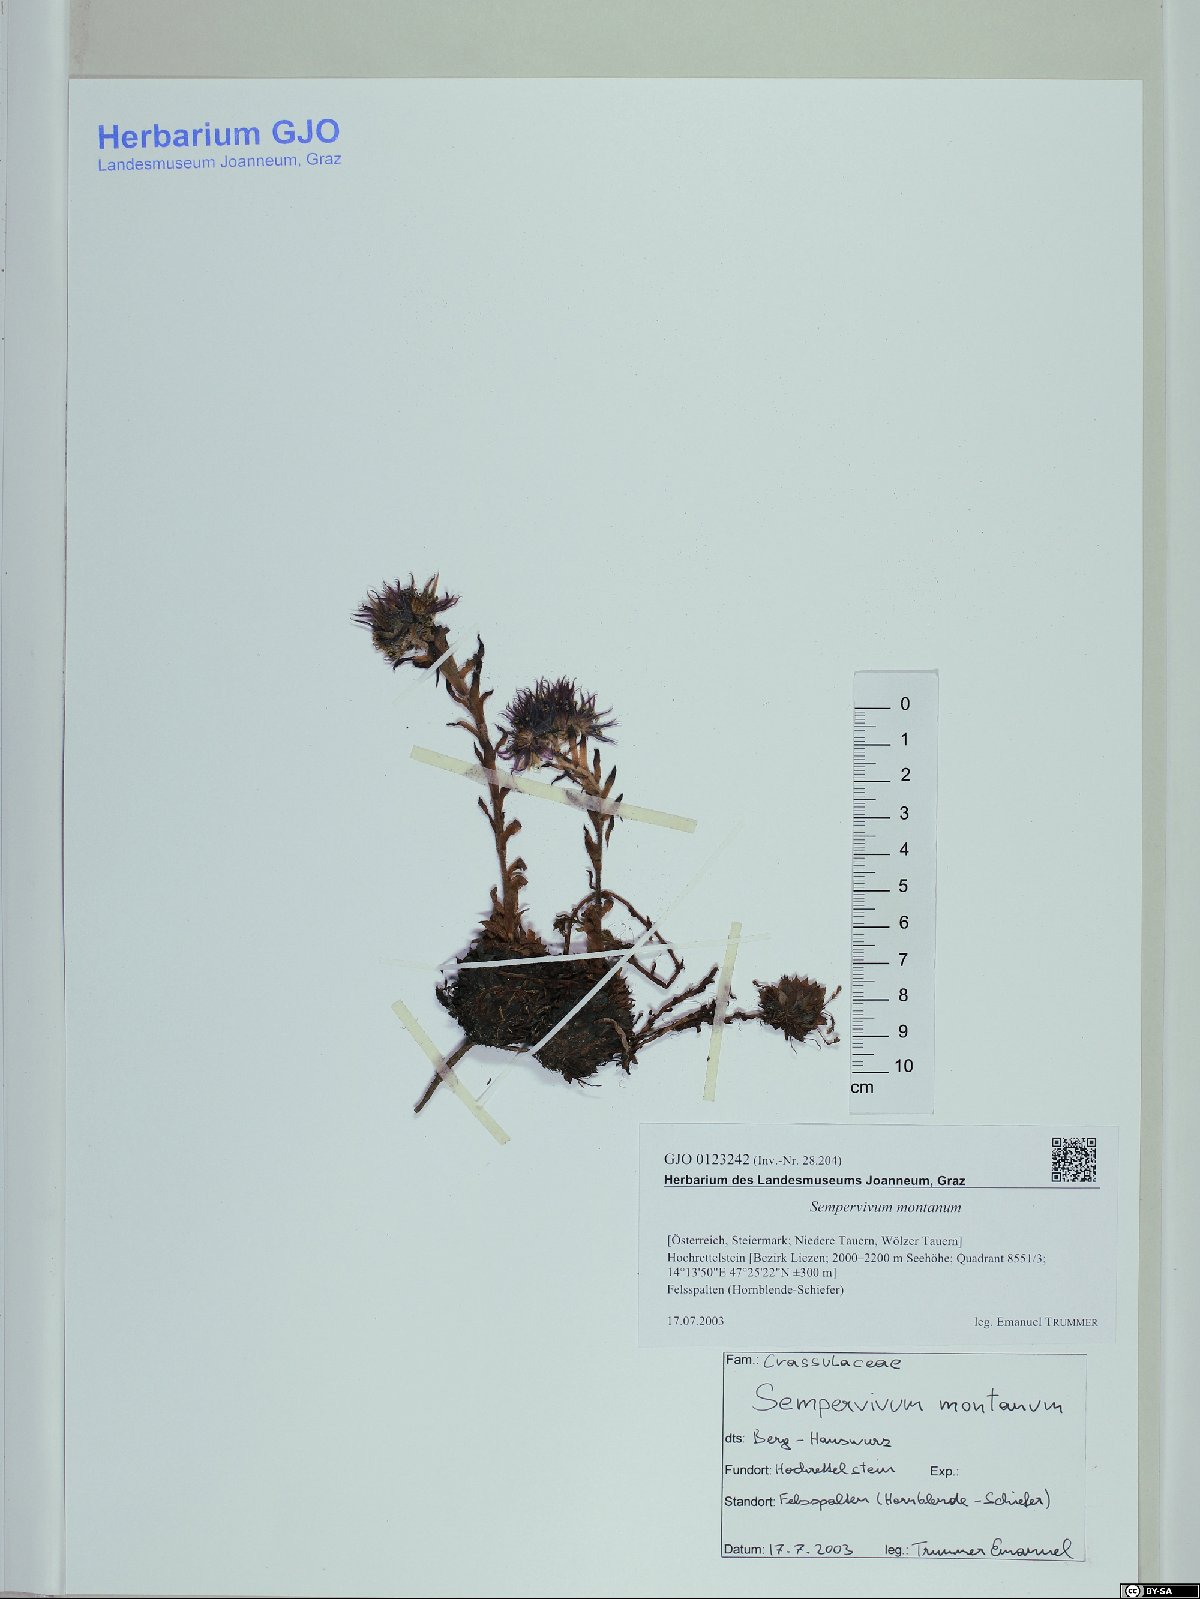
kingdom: Plantae
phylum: Tracheophyta
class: Magnoliopsida
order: Saxifragales
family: Crassulaceae
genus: Sempervivum
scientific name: Sempervivum montanum
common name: Mountain house-leek
